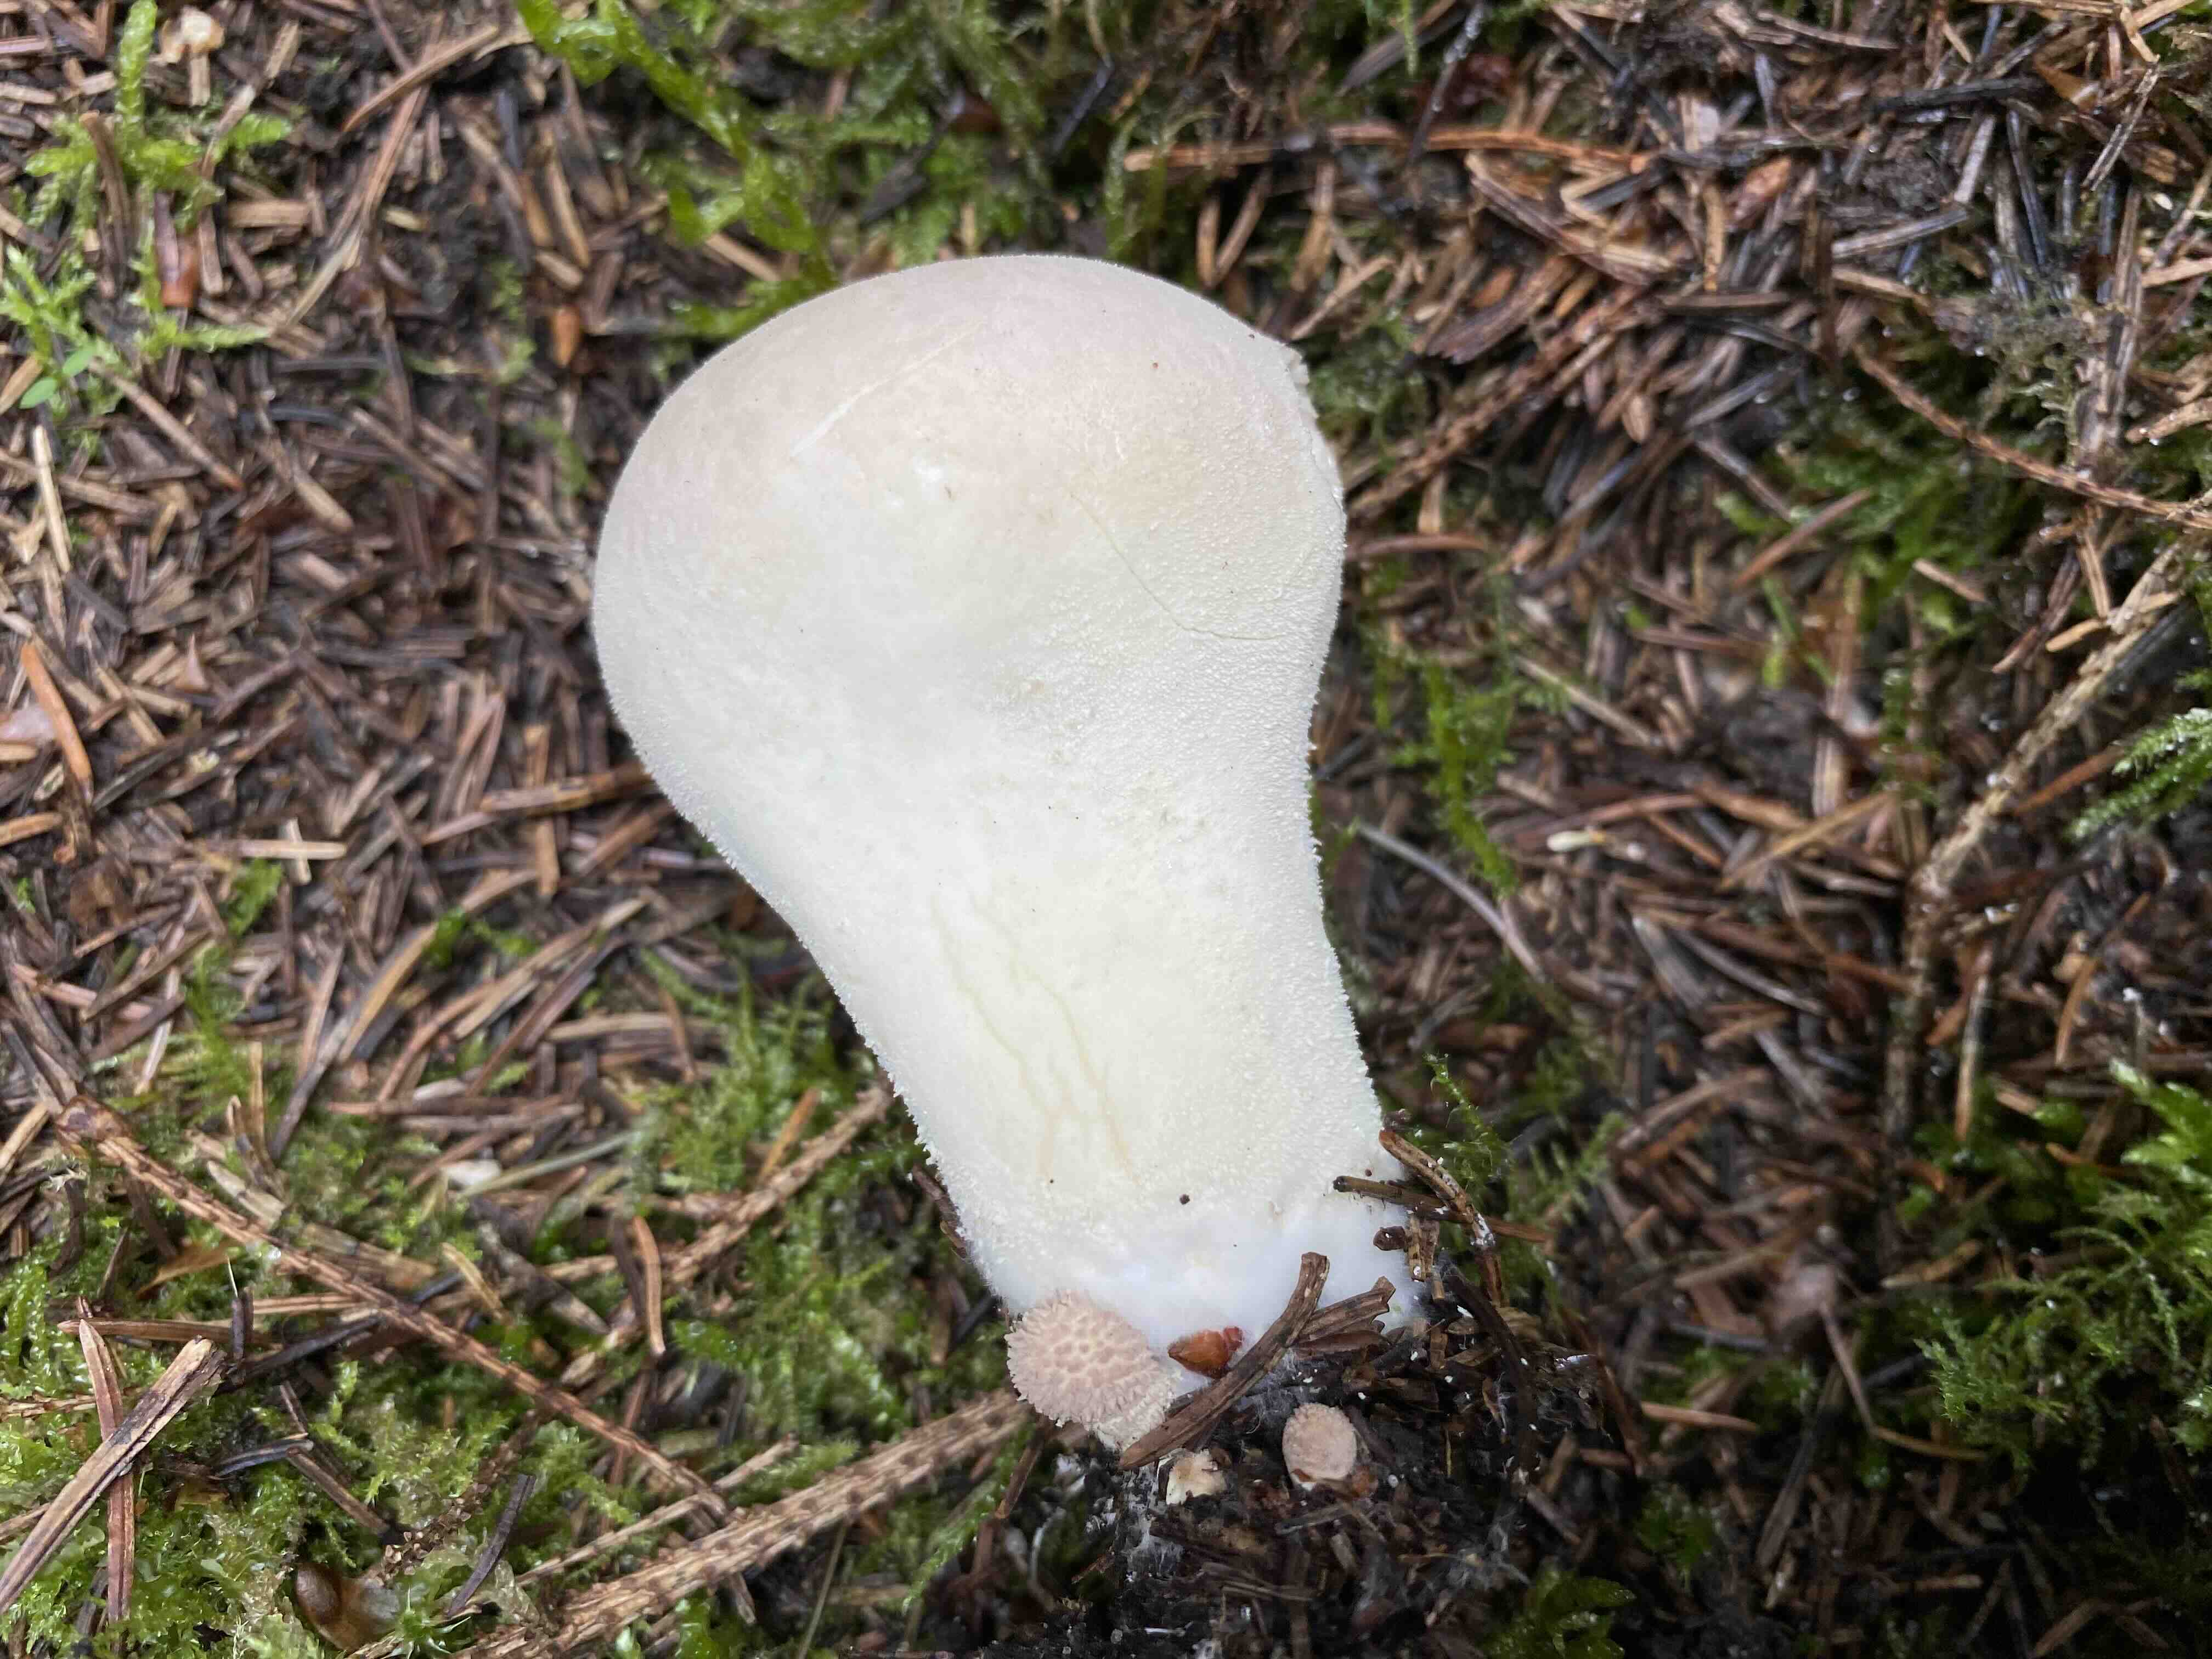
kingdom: Fungi
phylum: Basidiomycota
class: Agaricomycetes
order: Agaricales
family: Lycoperdaceae
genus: Lycoperdon
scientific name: Lycoperdon excipuliforme
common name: højstokket støvbold
